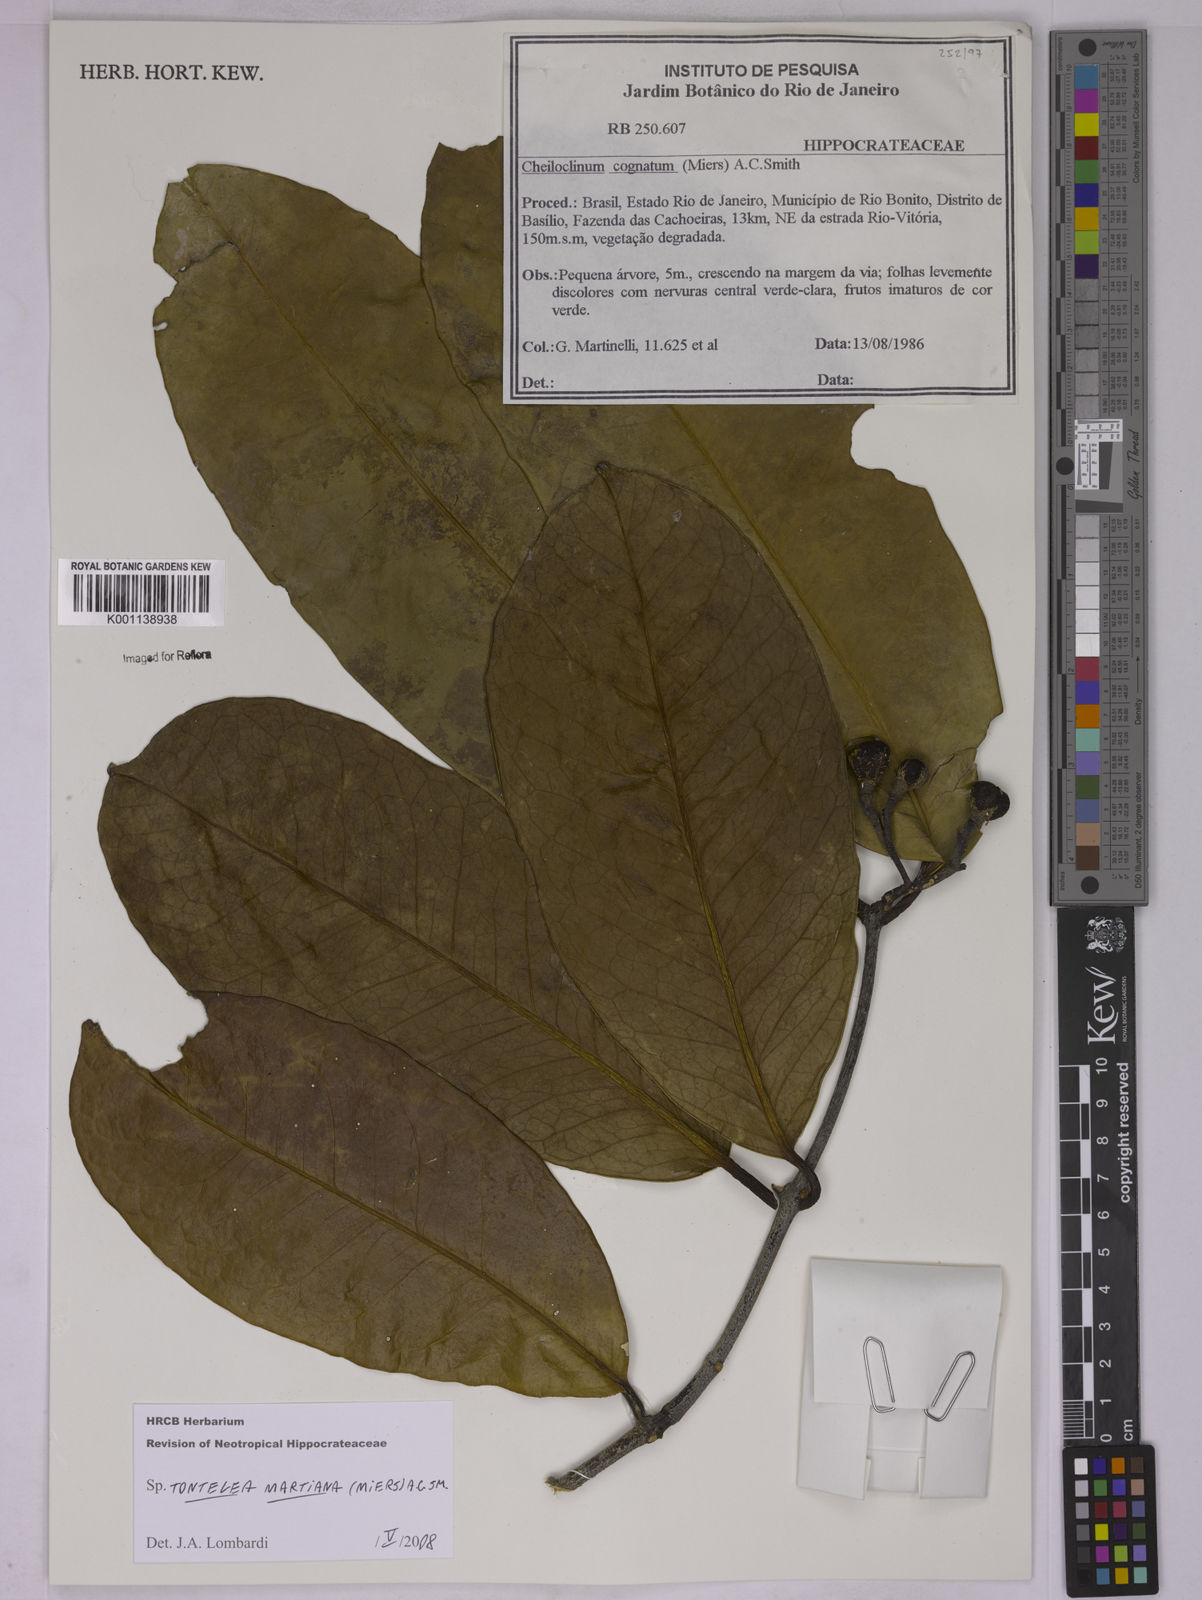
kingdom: Plantae
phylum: Tracheophyta
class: Magnoliopsida
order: Celastrales
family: Celastraceae
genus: Tontelea
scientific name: Tontelea martiana
